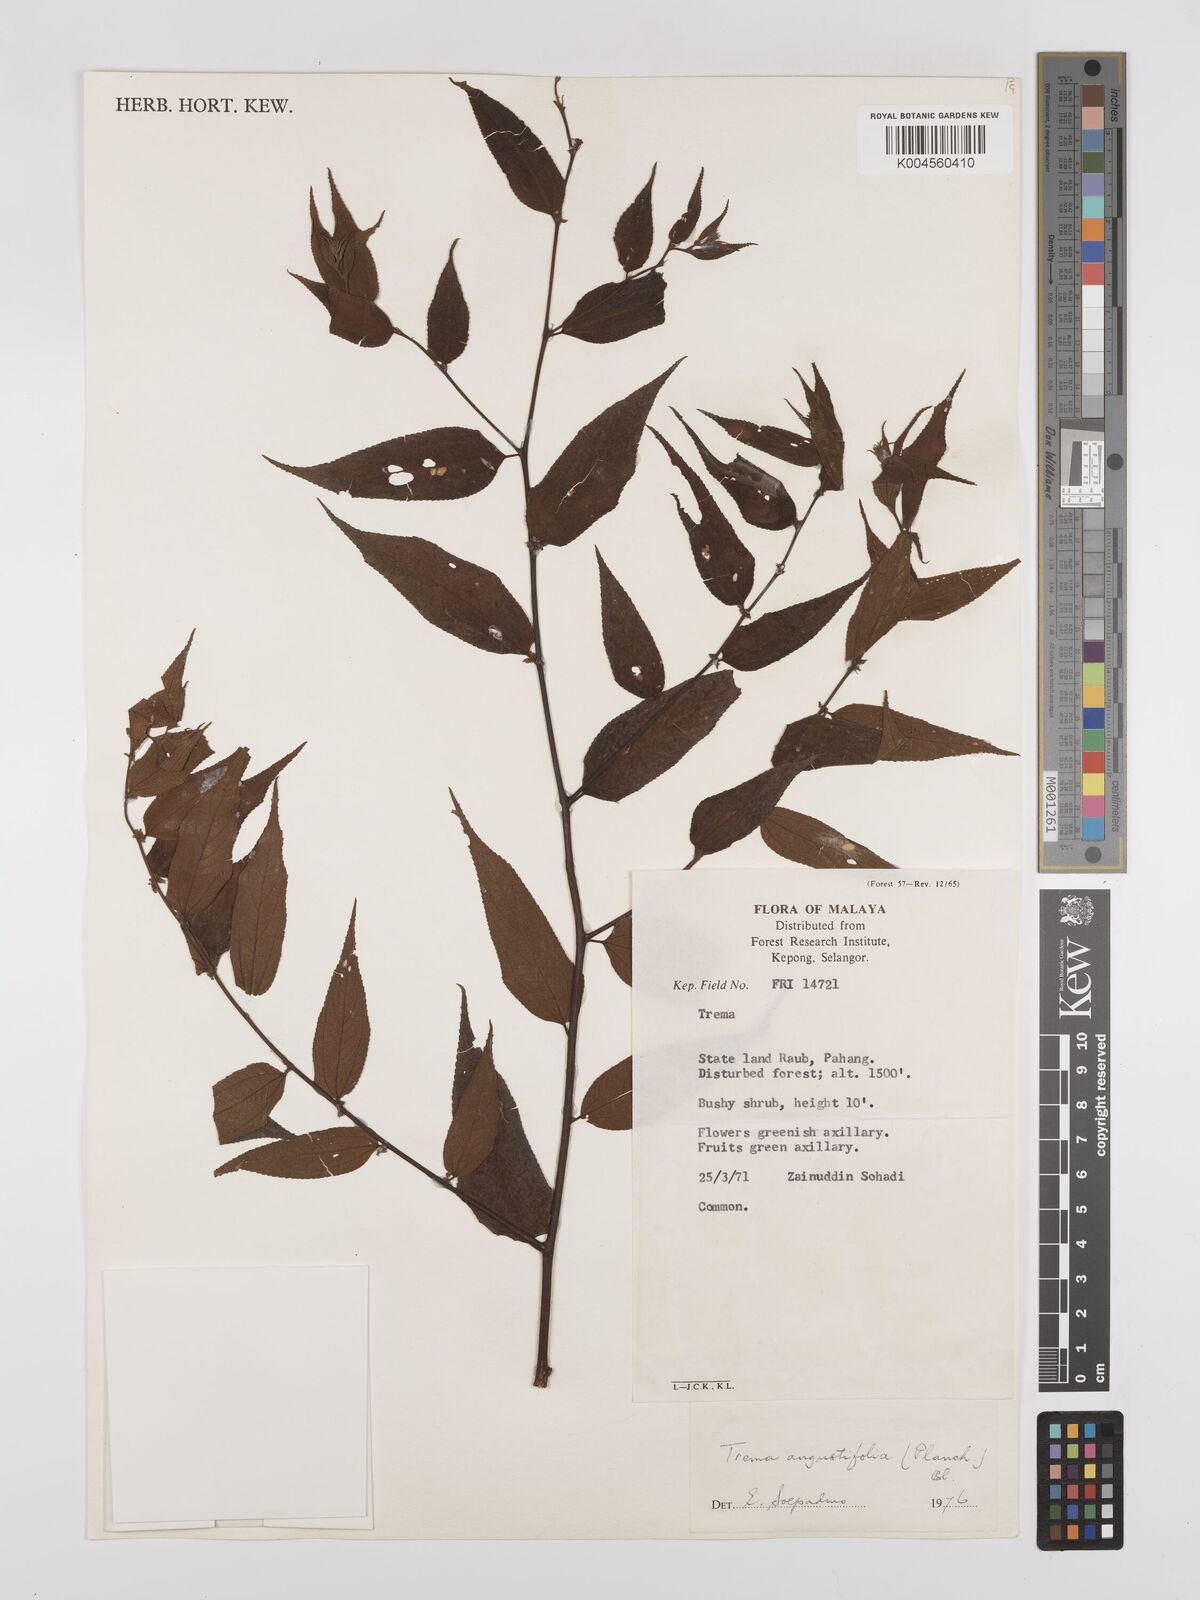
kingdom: Plantae
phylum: Tracheophyta
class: Magnoliopsida
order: Rosales
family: Cannabaceae
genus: Trema
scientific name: Trema angustifolium
